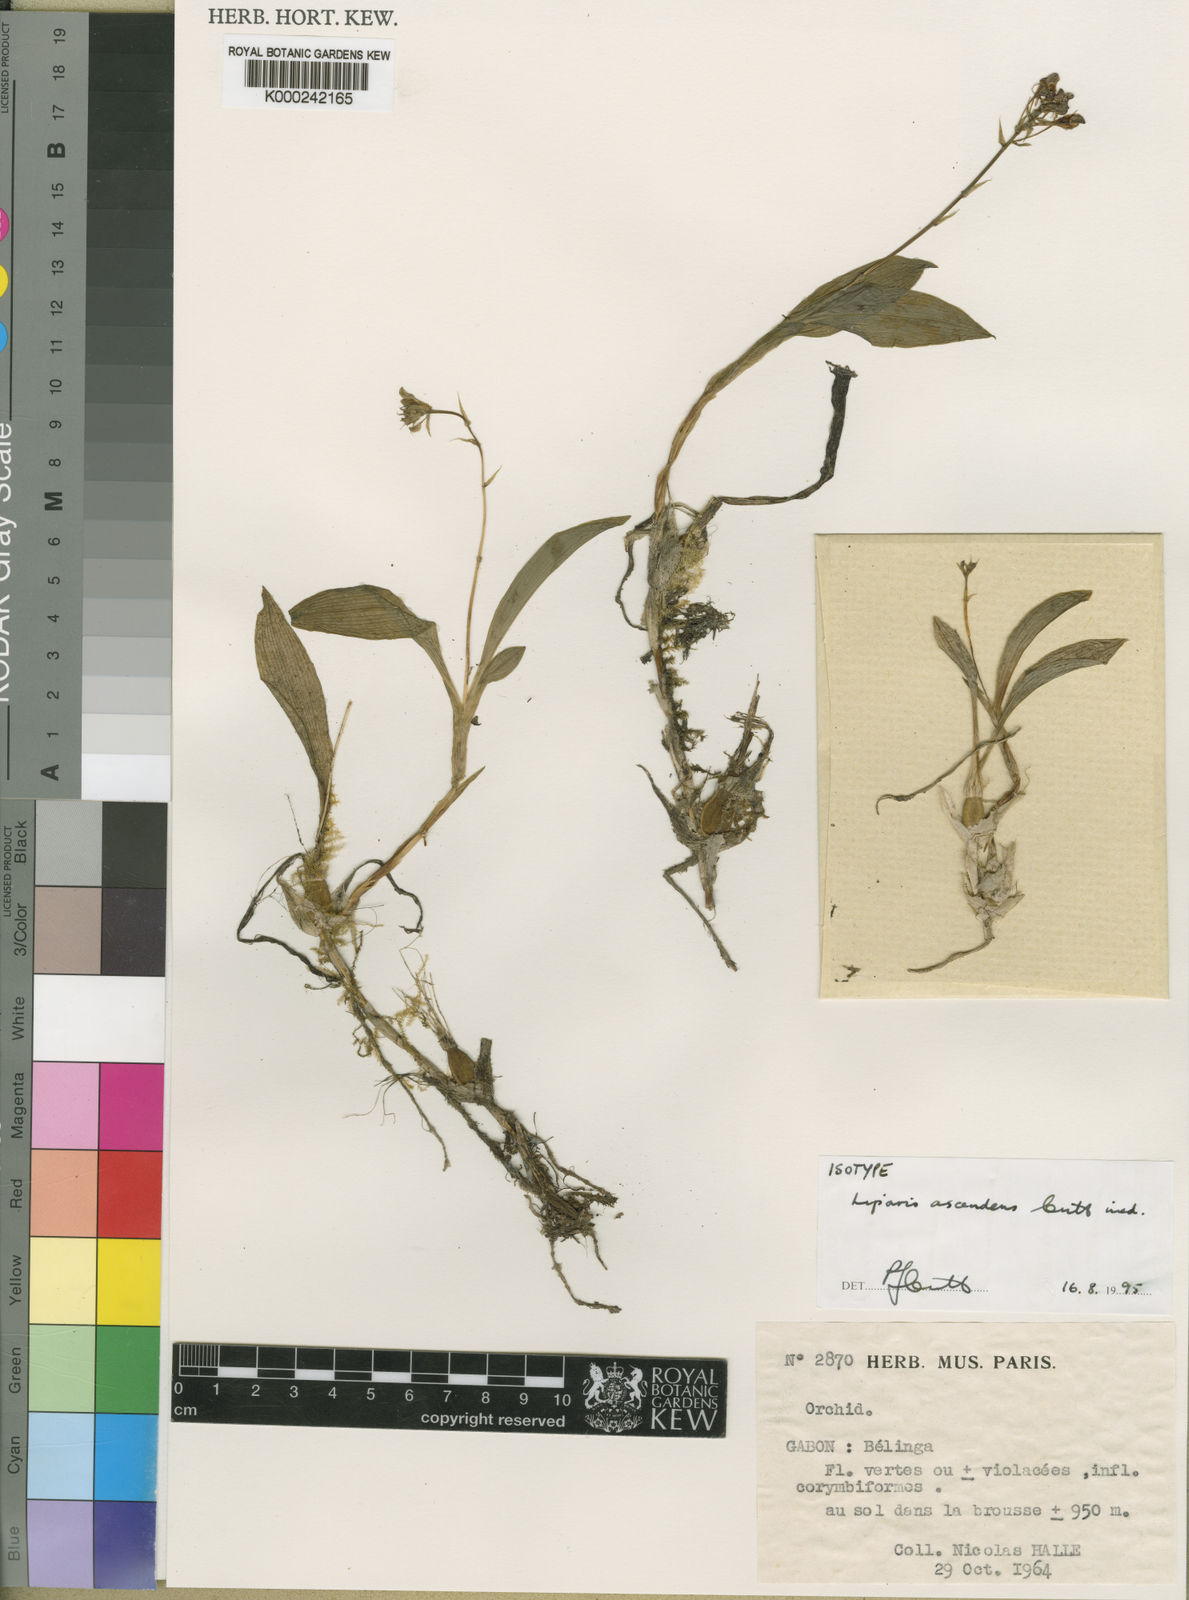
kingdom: Plantae
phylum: Tracheophyta
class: Liliopsida
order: Asparagales
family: Orchidaceae
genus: Liparis
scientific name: Liparis ascendens
